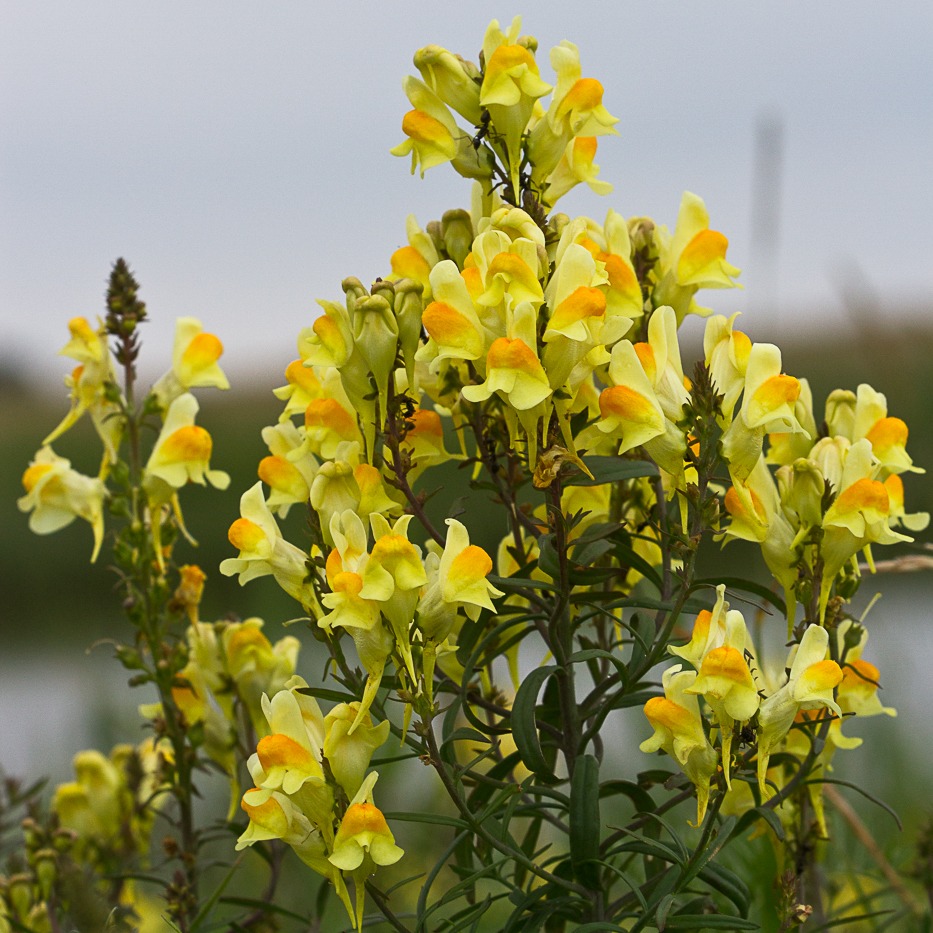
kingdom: Plantae
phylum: Tracheophyta
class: Magnoliopsida
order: Lamiales
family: Plantaginaceae
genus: Linaria
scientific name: Linaria vulgaris
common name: Almindelig torskemund
